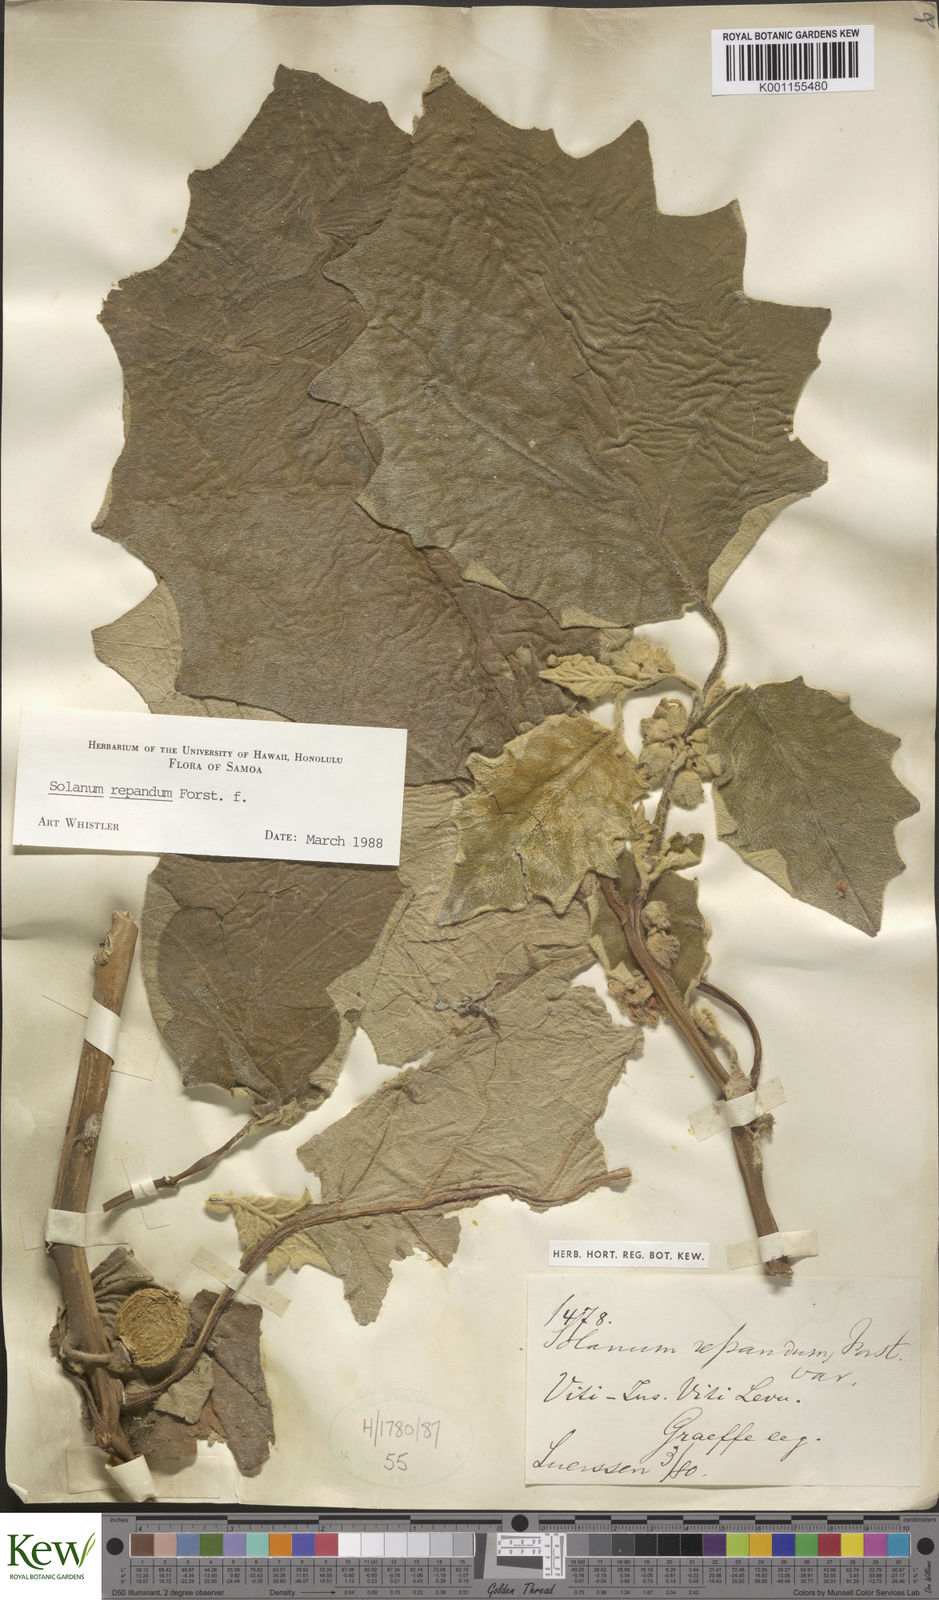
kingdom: Plantae
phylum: Tracheophyta
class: Magnoliopsida
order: Solanales
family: Solanaceae
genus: Solanum
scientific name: Solanum repandum
